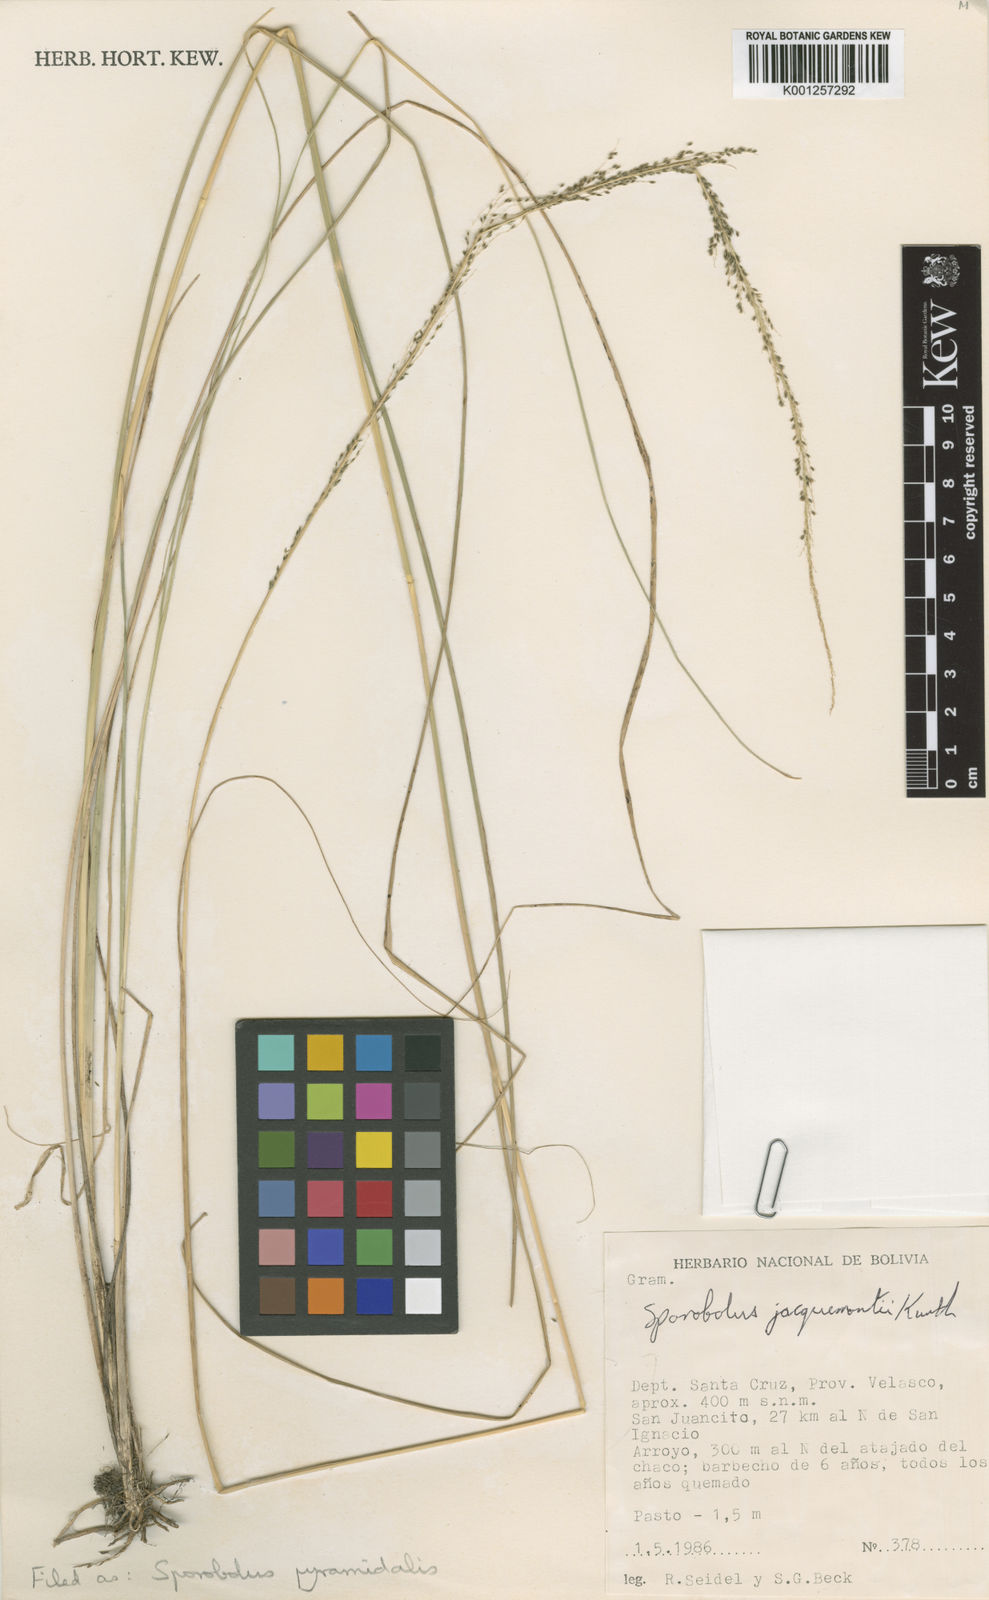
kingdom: Plantae
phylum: Tracheophyta
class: Liliopsida
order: Poales
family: Poaceae
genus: Sporobolus
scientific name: Sporobolus pyramidalis
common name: West indian dropseed
